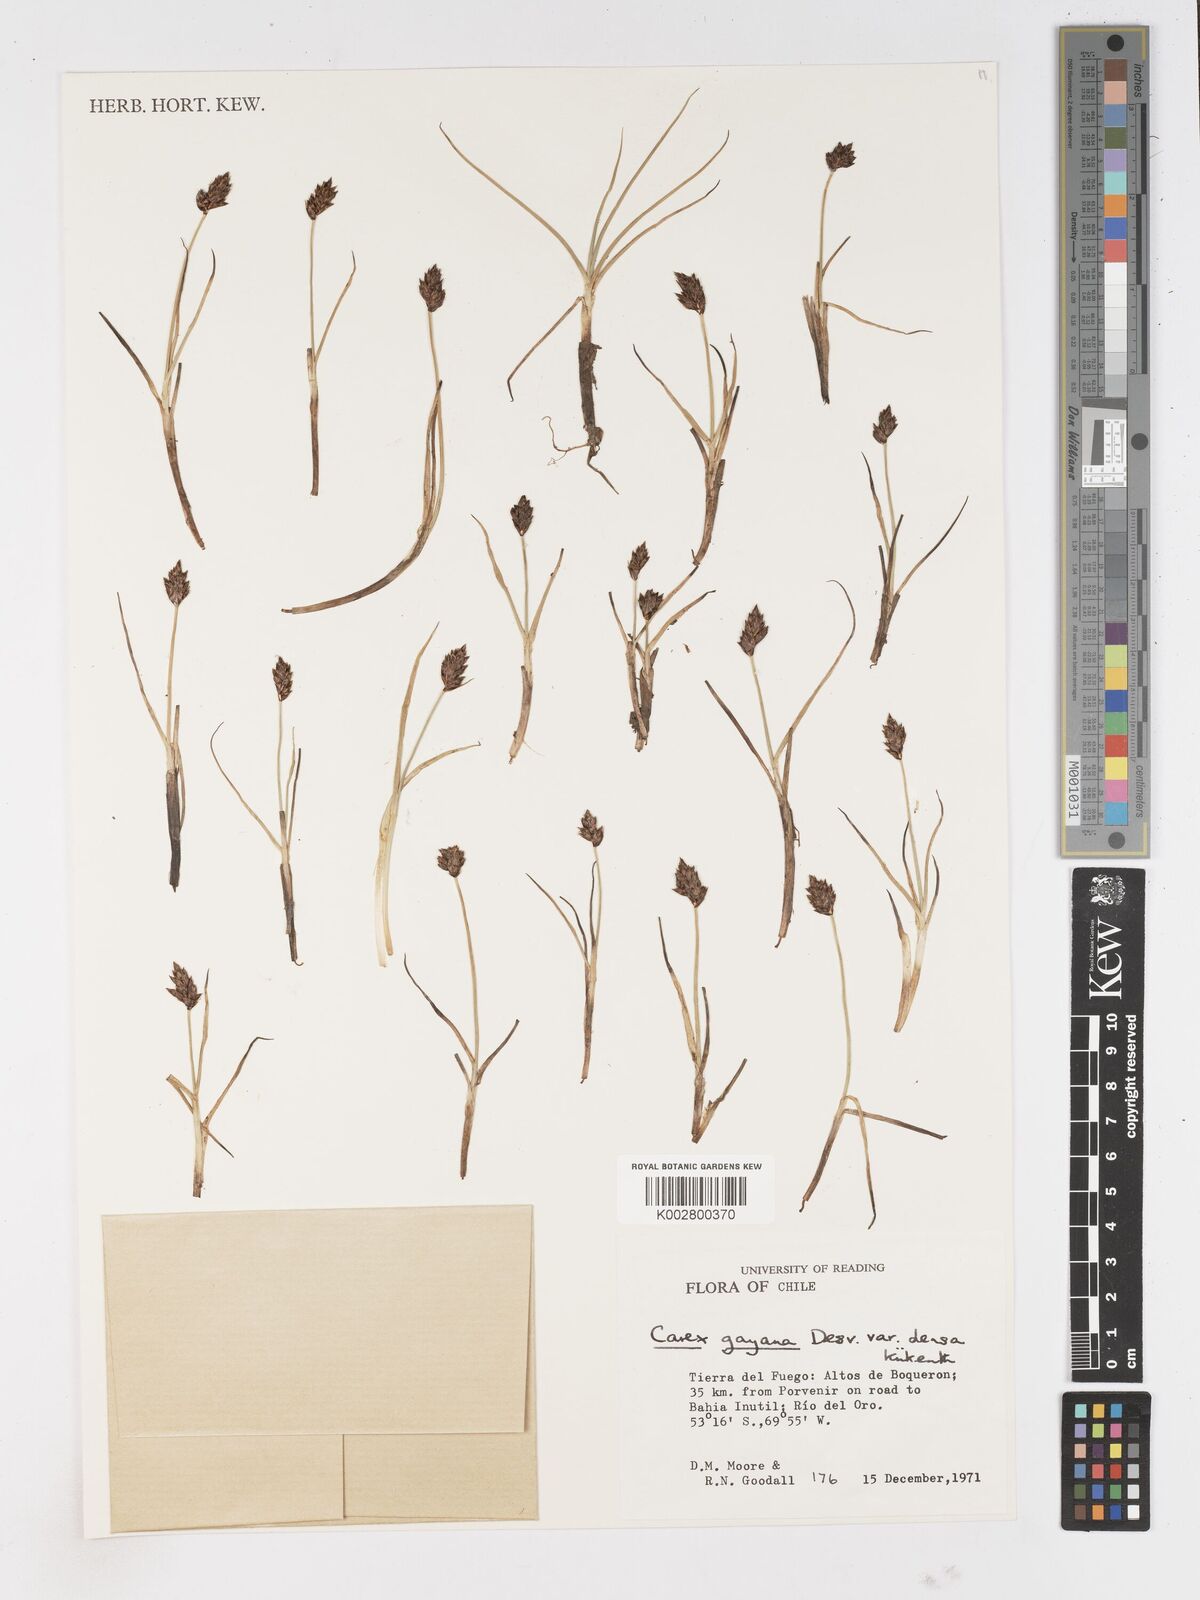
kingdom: Plantae
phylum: Tracheophyta
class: Liliopsida
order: Poales
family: Cyperaceae
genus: Carex
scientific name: Carex gayana
